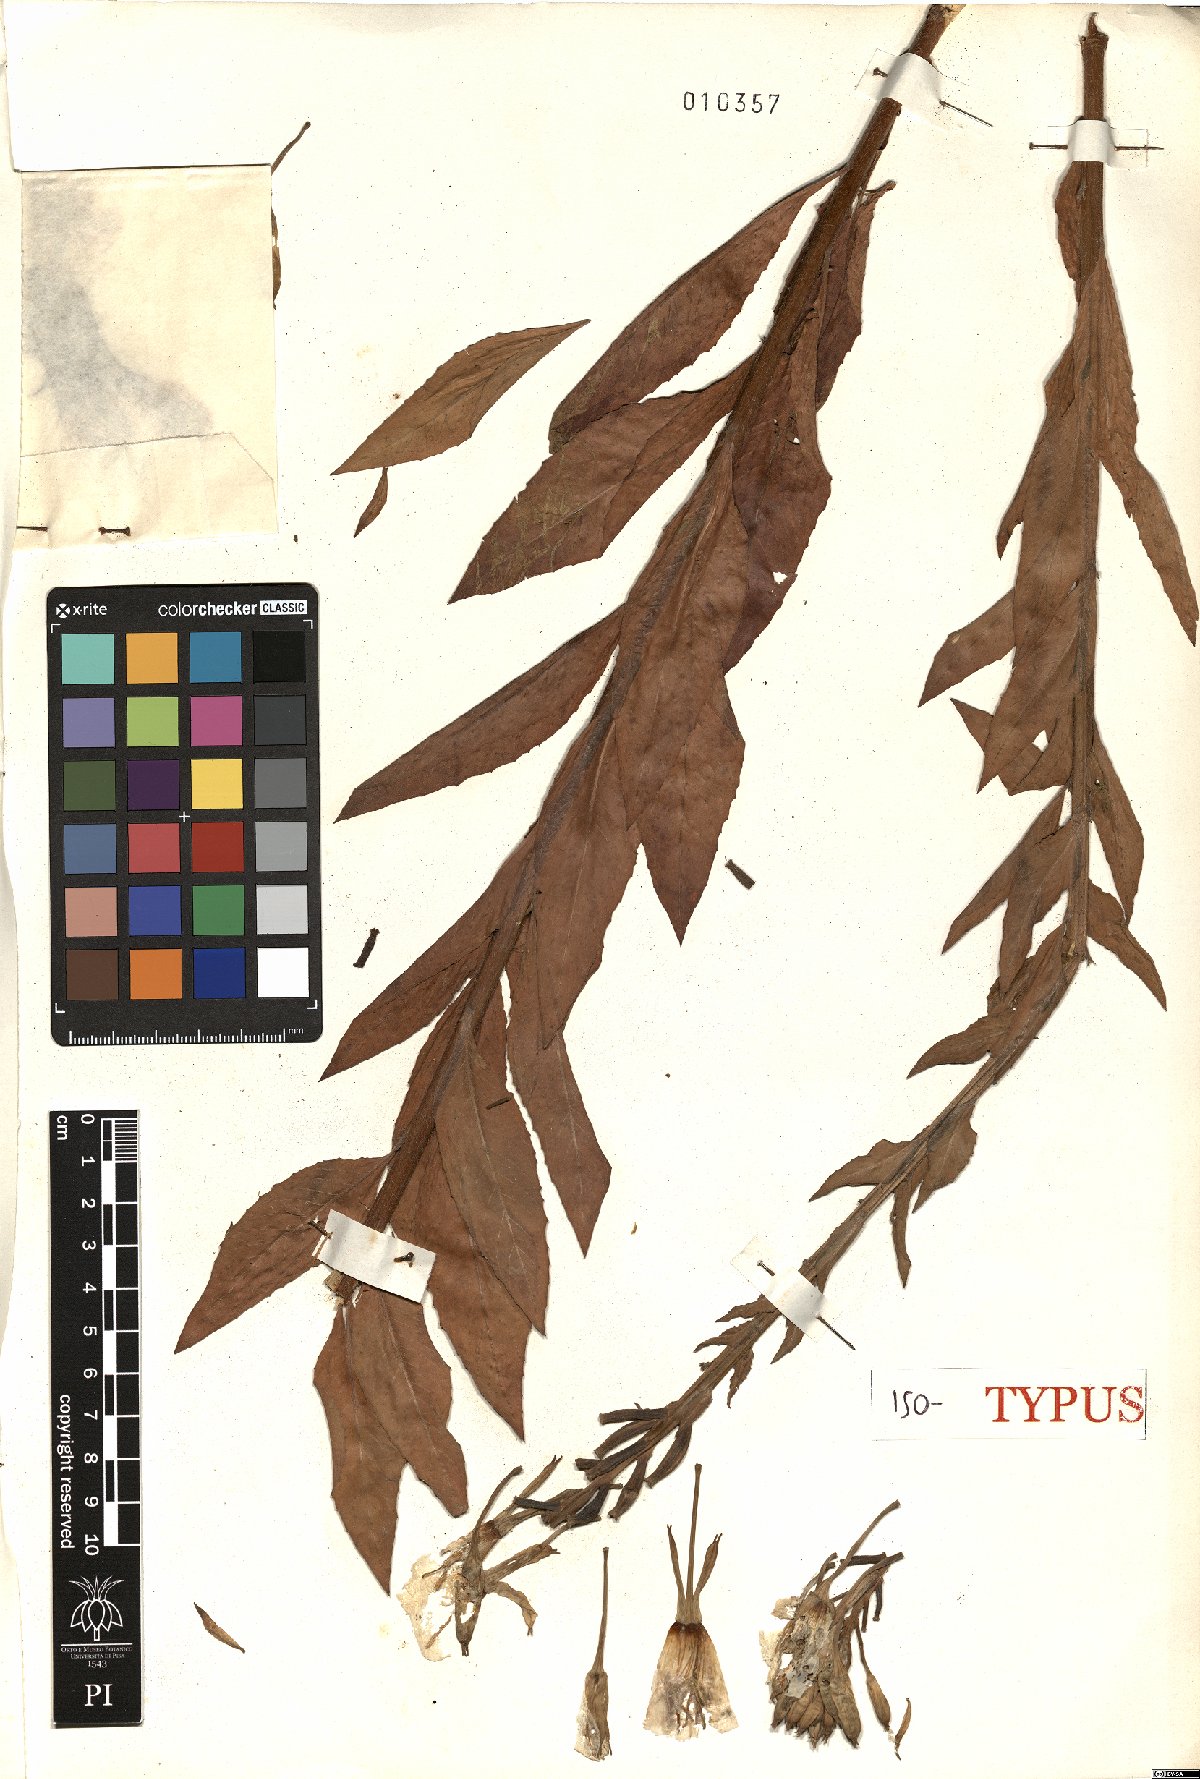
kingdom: Plantae
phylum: Tracheophyta
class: Magnoliopsida
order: Myrtales
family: Onagraceae
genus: Oenothera
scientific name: Oenothera chicaginensis
